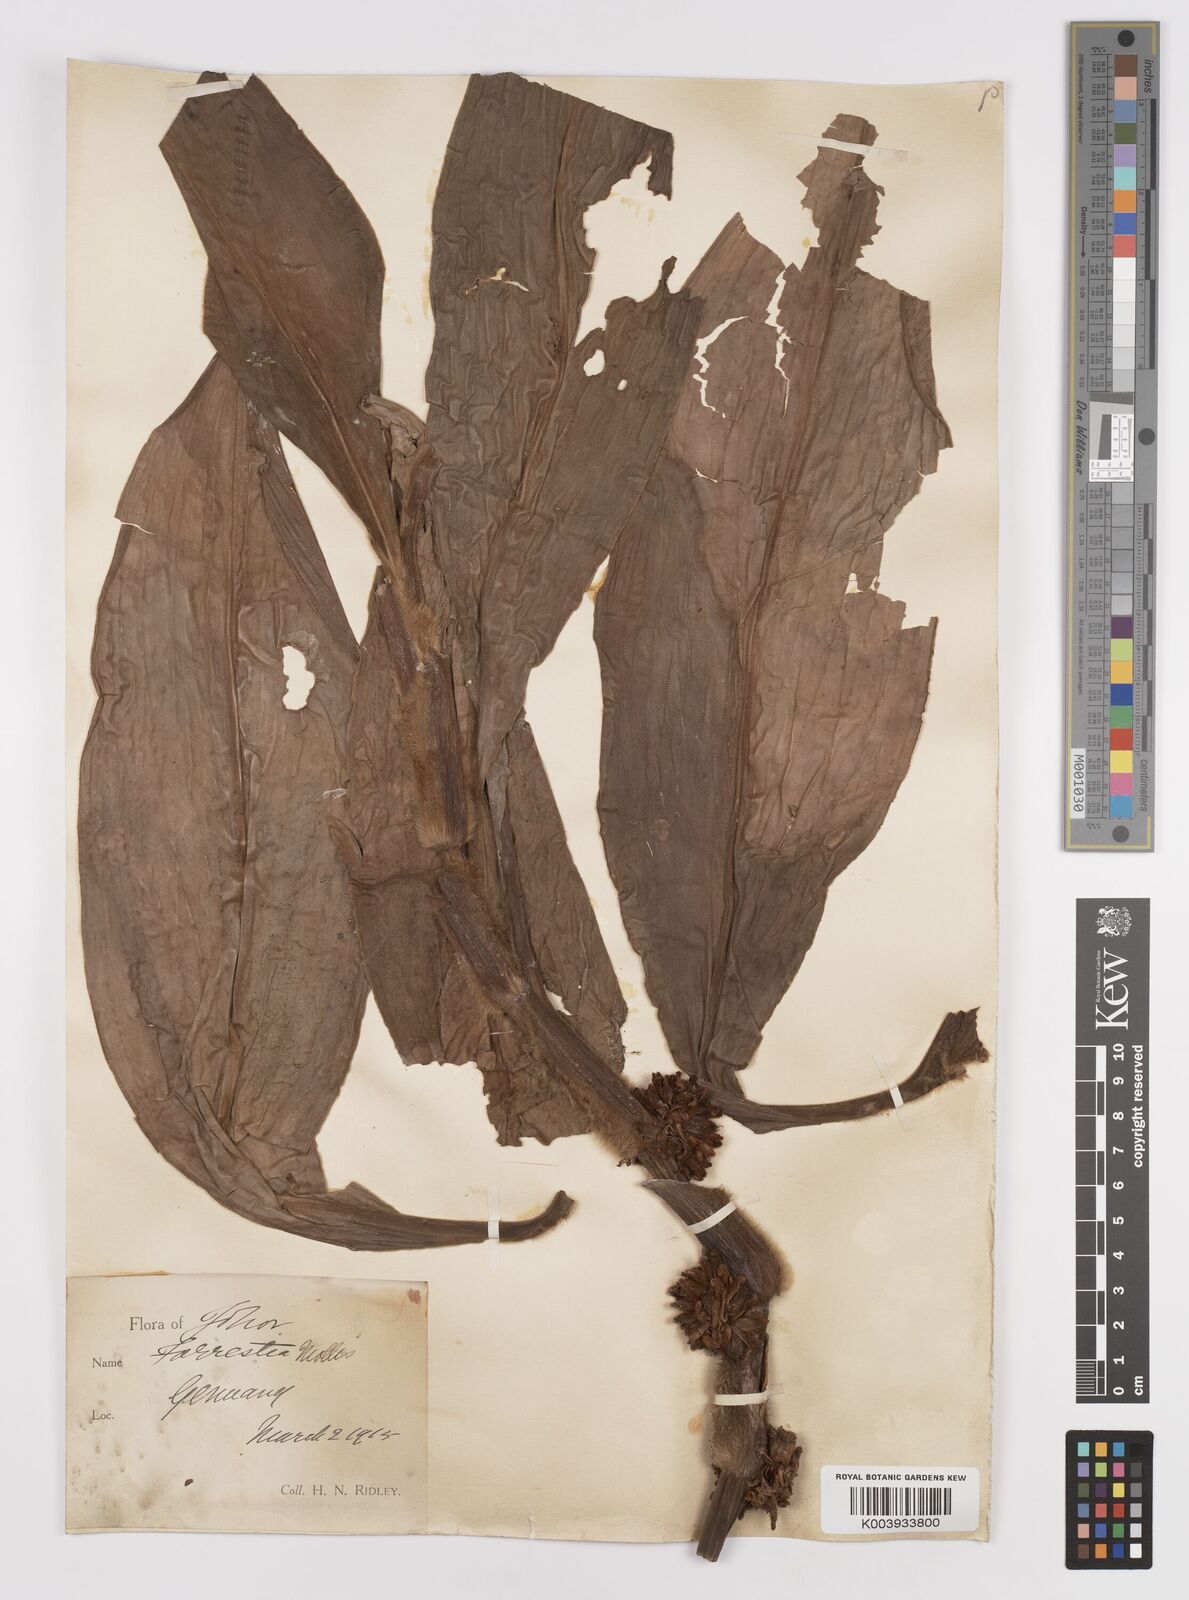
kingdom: Plantae
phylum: Tracheophyta
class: Liliopsida
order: Commelinales
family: Commelinaceae
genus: Amischotolype
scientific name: Amischotolype mollissima
